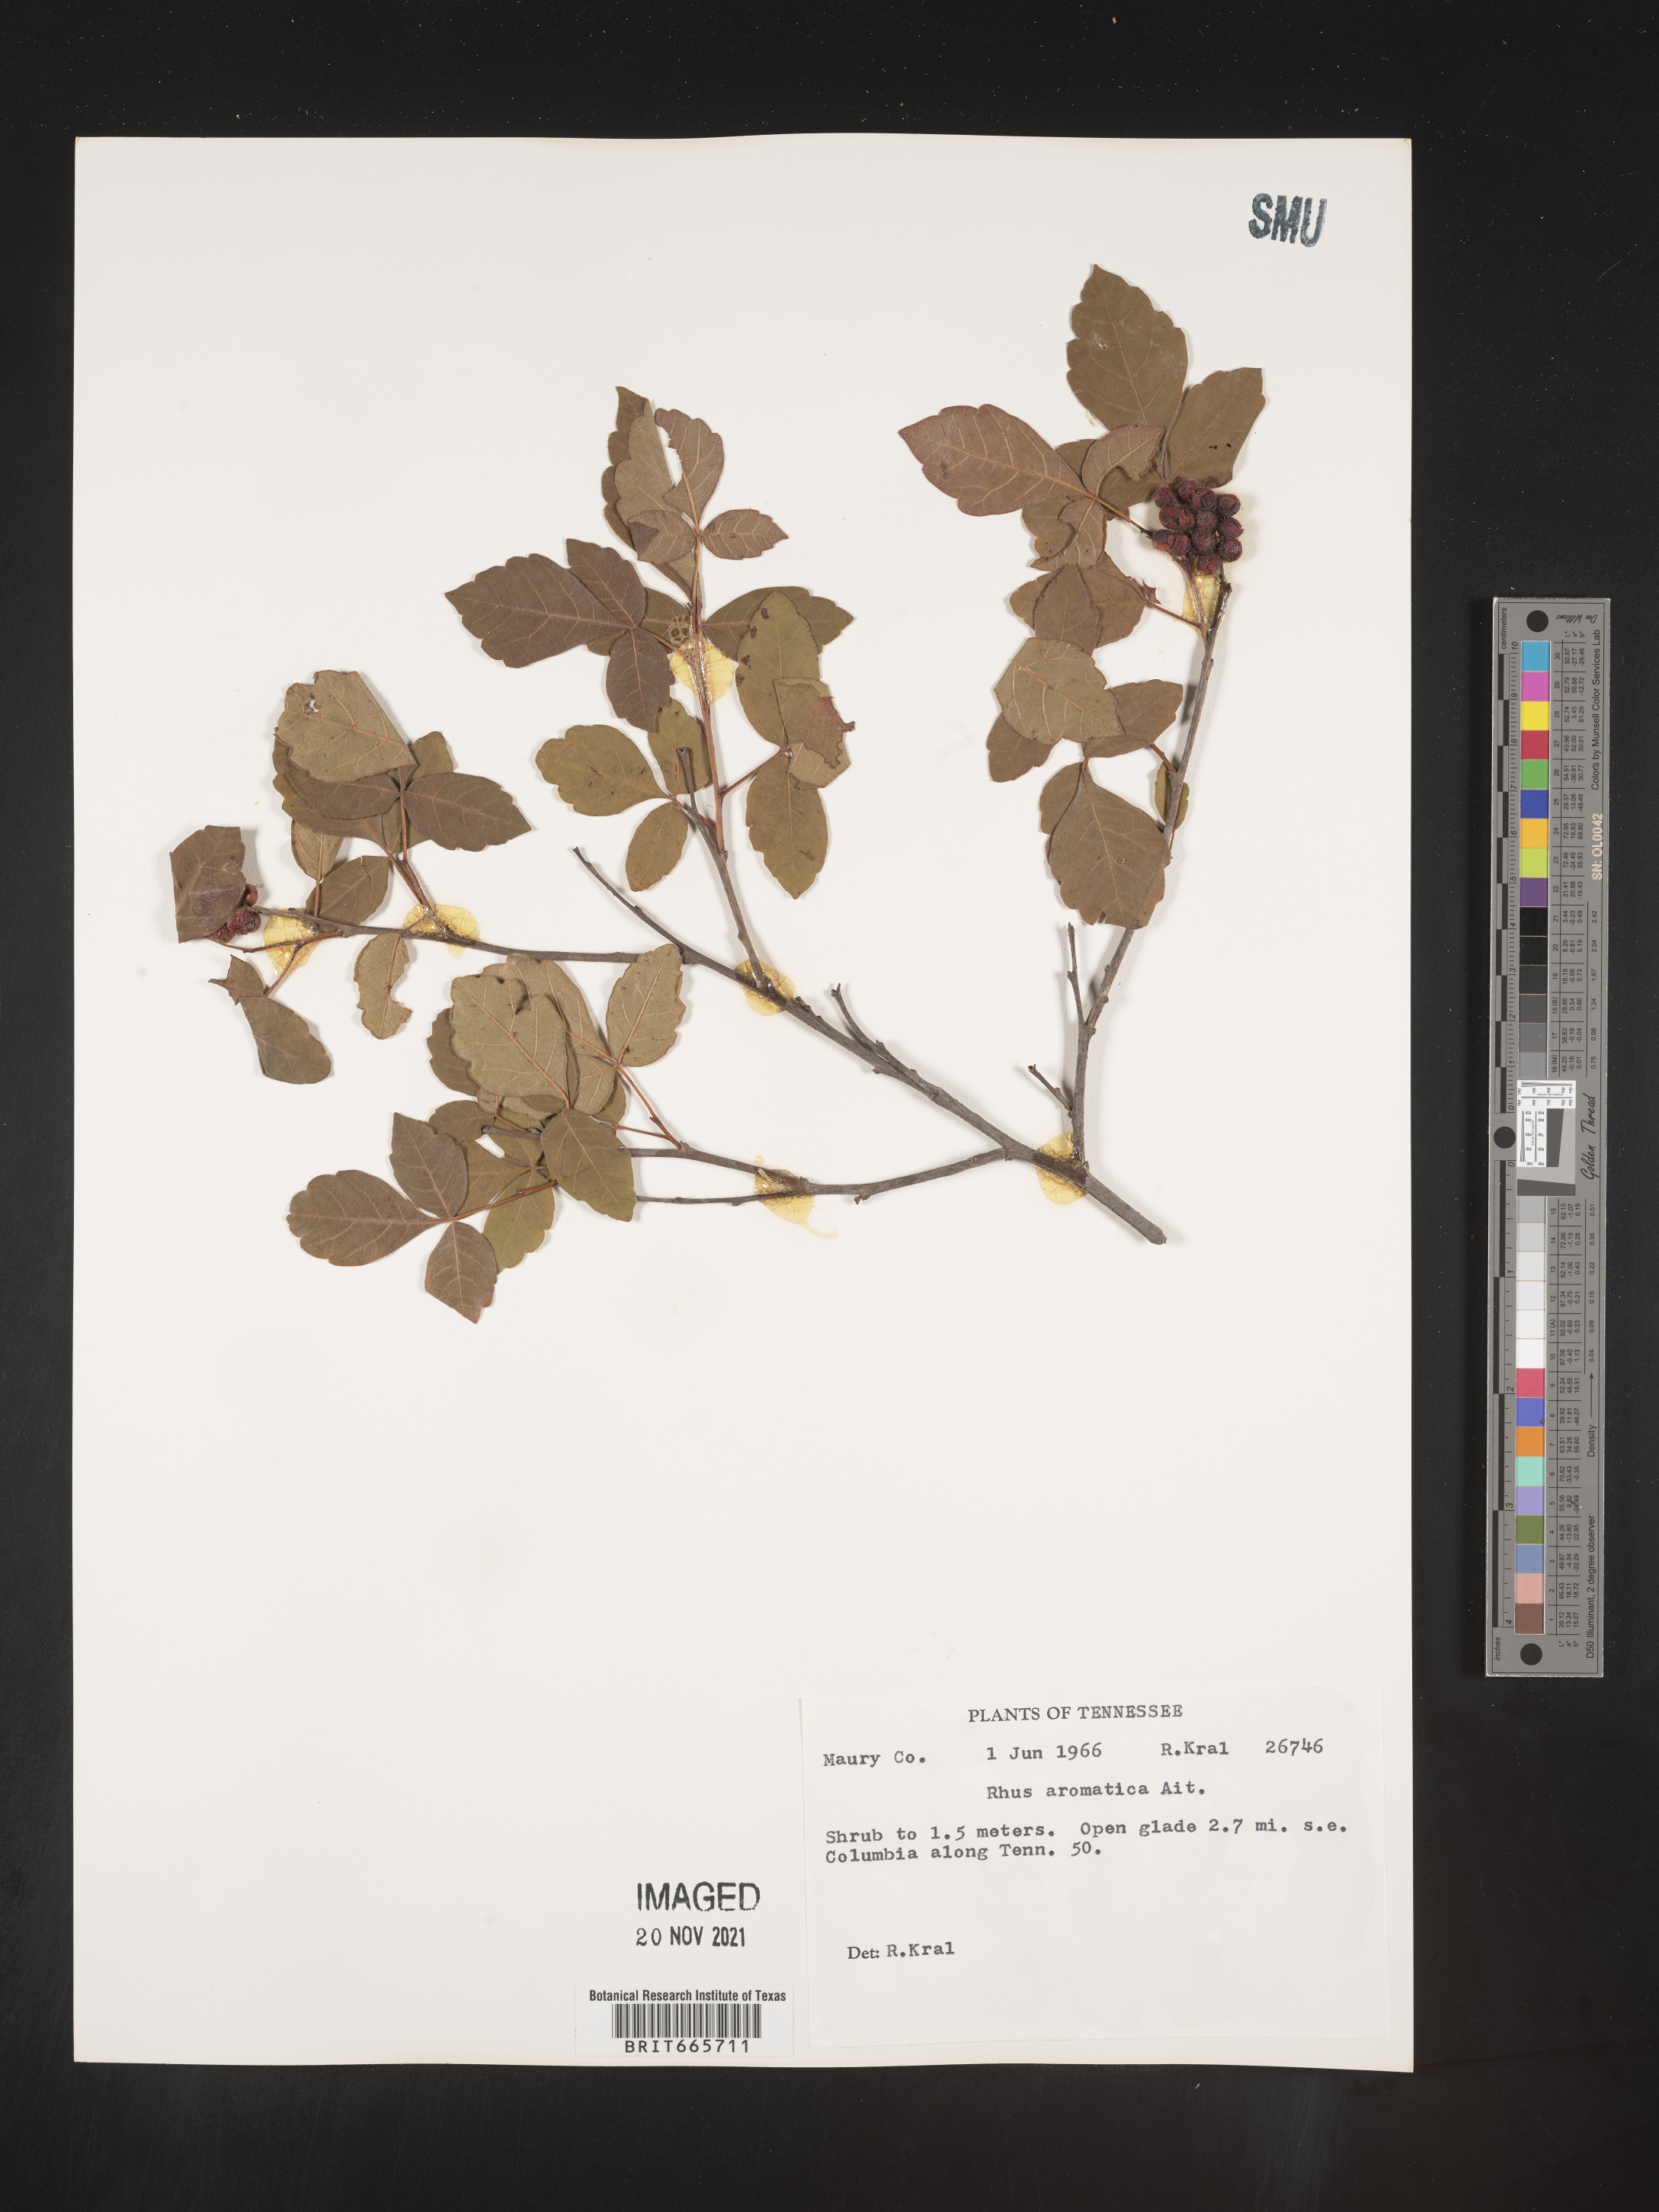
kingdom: Plantae
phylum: Tracheophyta
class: Magnoliopsida
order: Sapindales
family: Anacardiaceae
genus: Rhus
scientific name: Rhus aromatica
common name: Aromatic sumac
